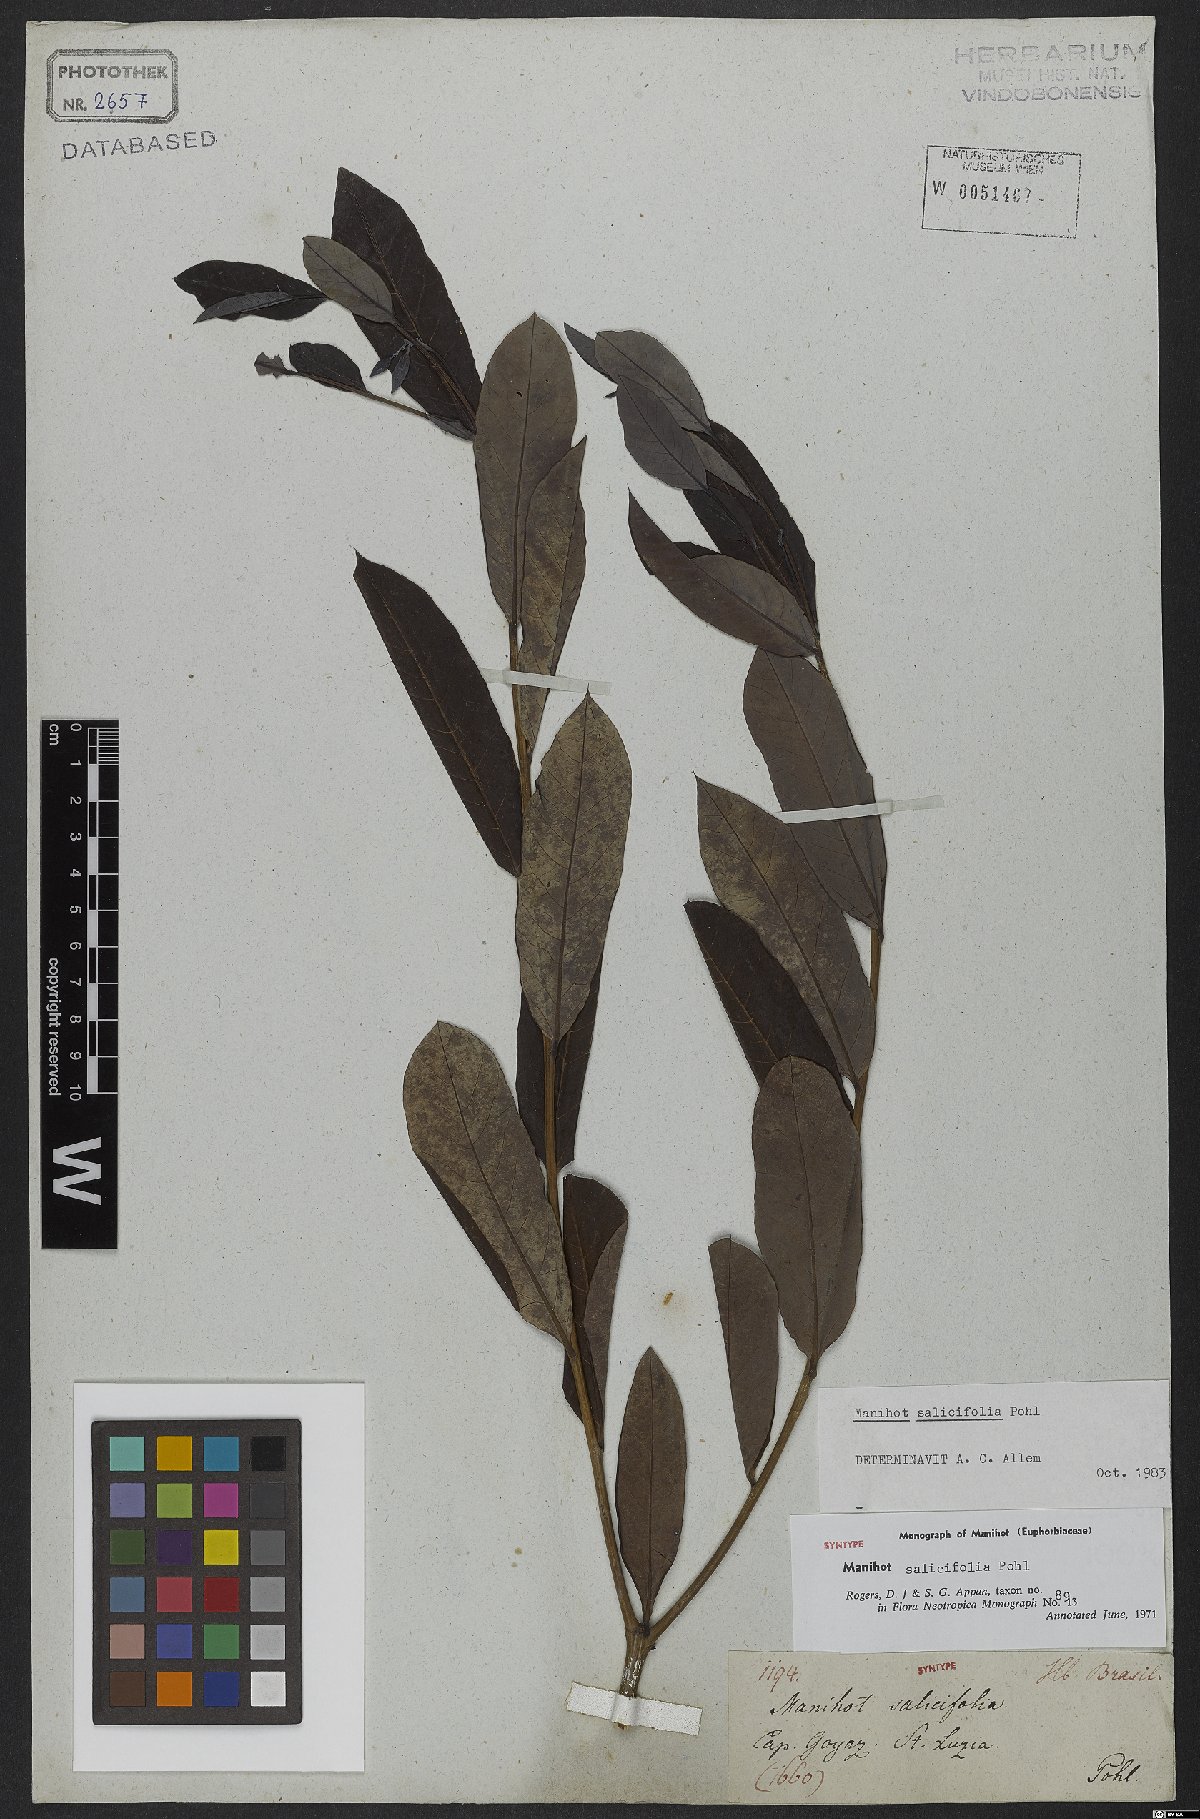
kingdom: Plantae
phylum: Tracheophyta
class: Magnoliopsida
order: Malpighiales
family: Euphorbiaceae
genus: Manihot
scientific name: Manihot salicifolia
